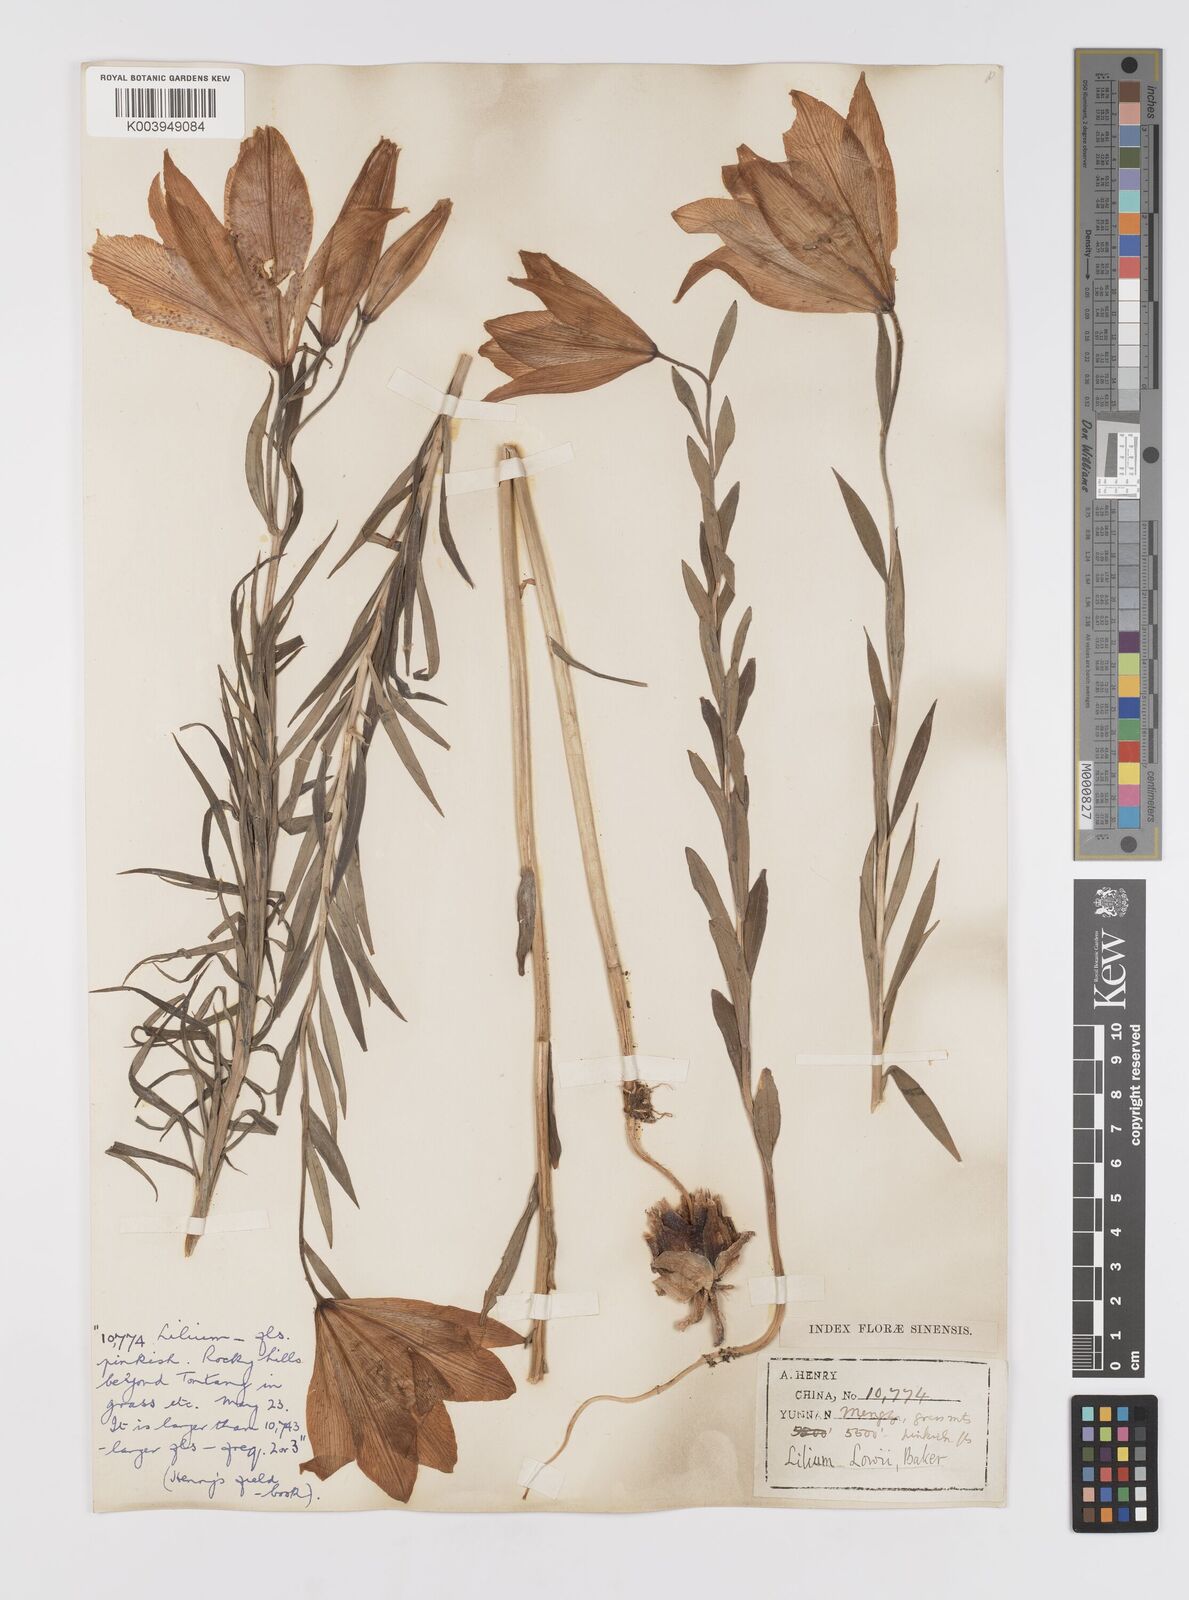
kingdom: Plantae
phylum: Tracheophyta
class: Liliopsida
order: Liliales
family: Liliaceae
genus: Lilium
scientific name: Lilium bakerianum
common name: Baker's lily
